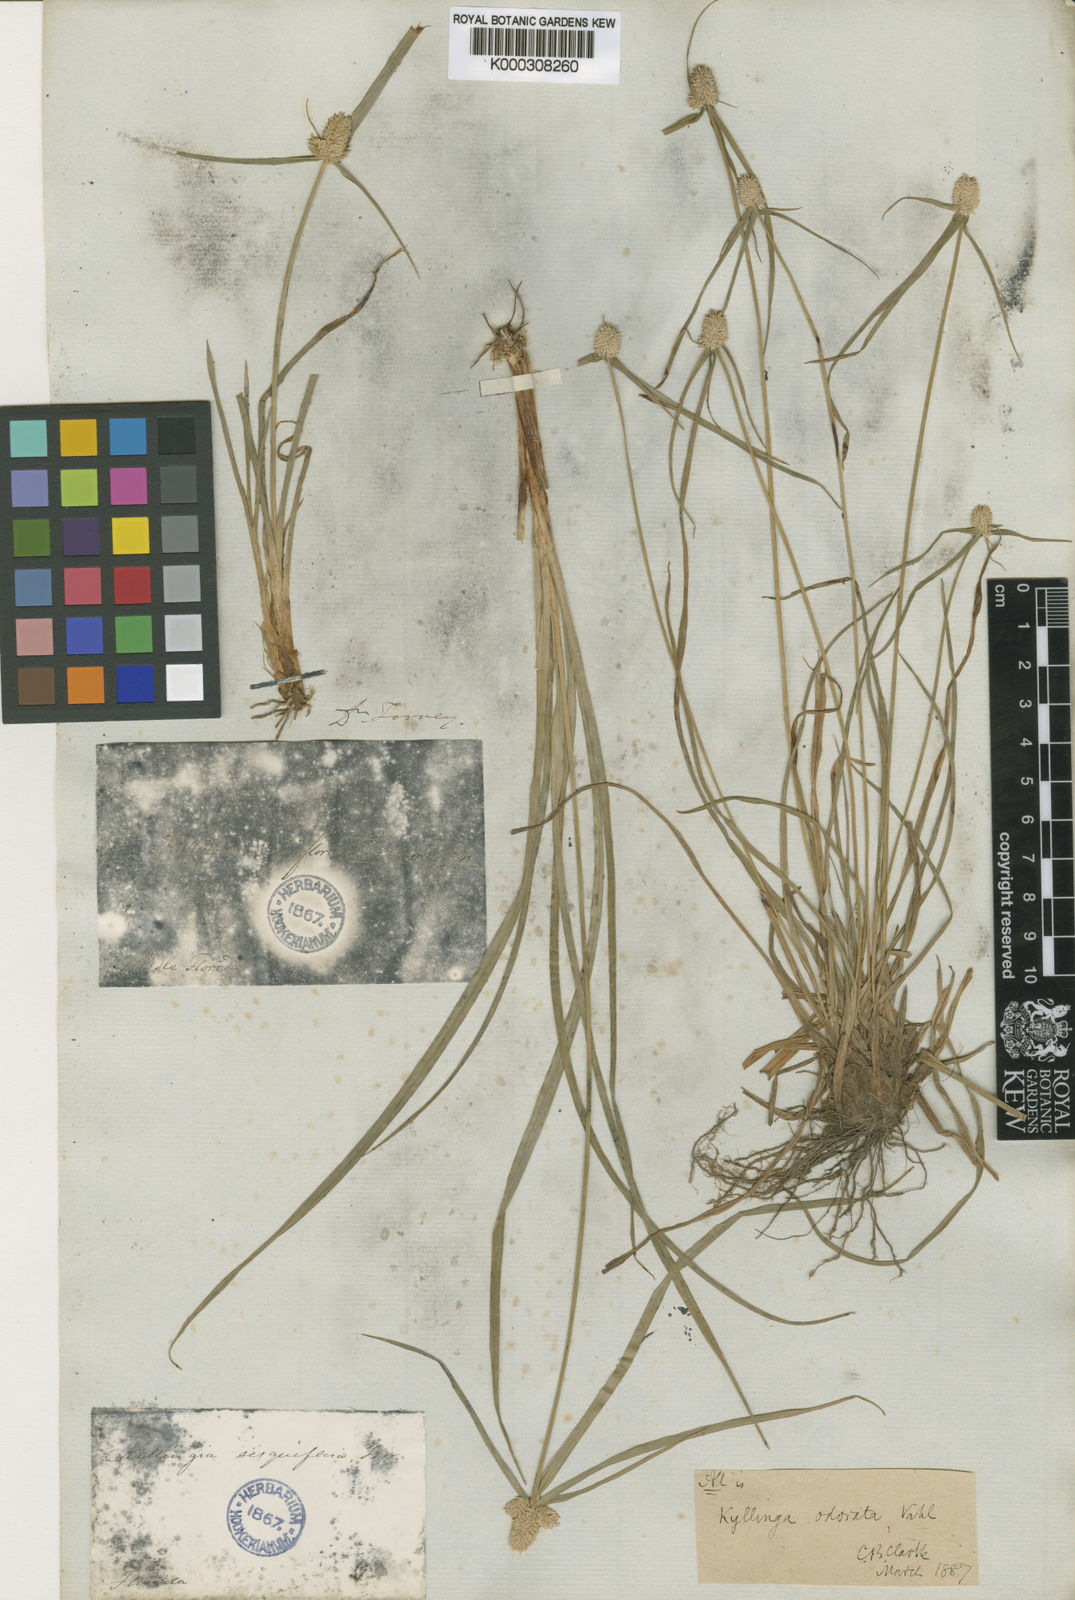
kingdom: Plantae
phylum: Tracheophyta
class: Liliopsida
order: Poales
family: Cyperaceae
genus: Cyperus
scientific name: Cyperus sesquiflorus
